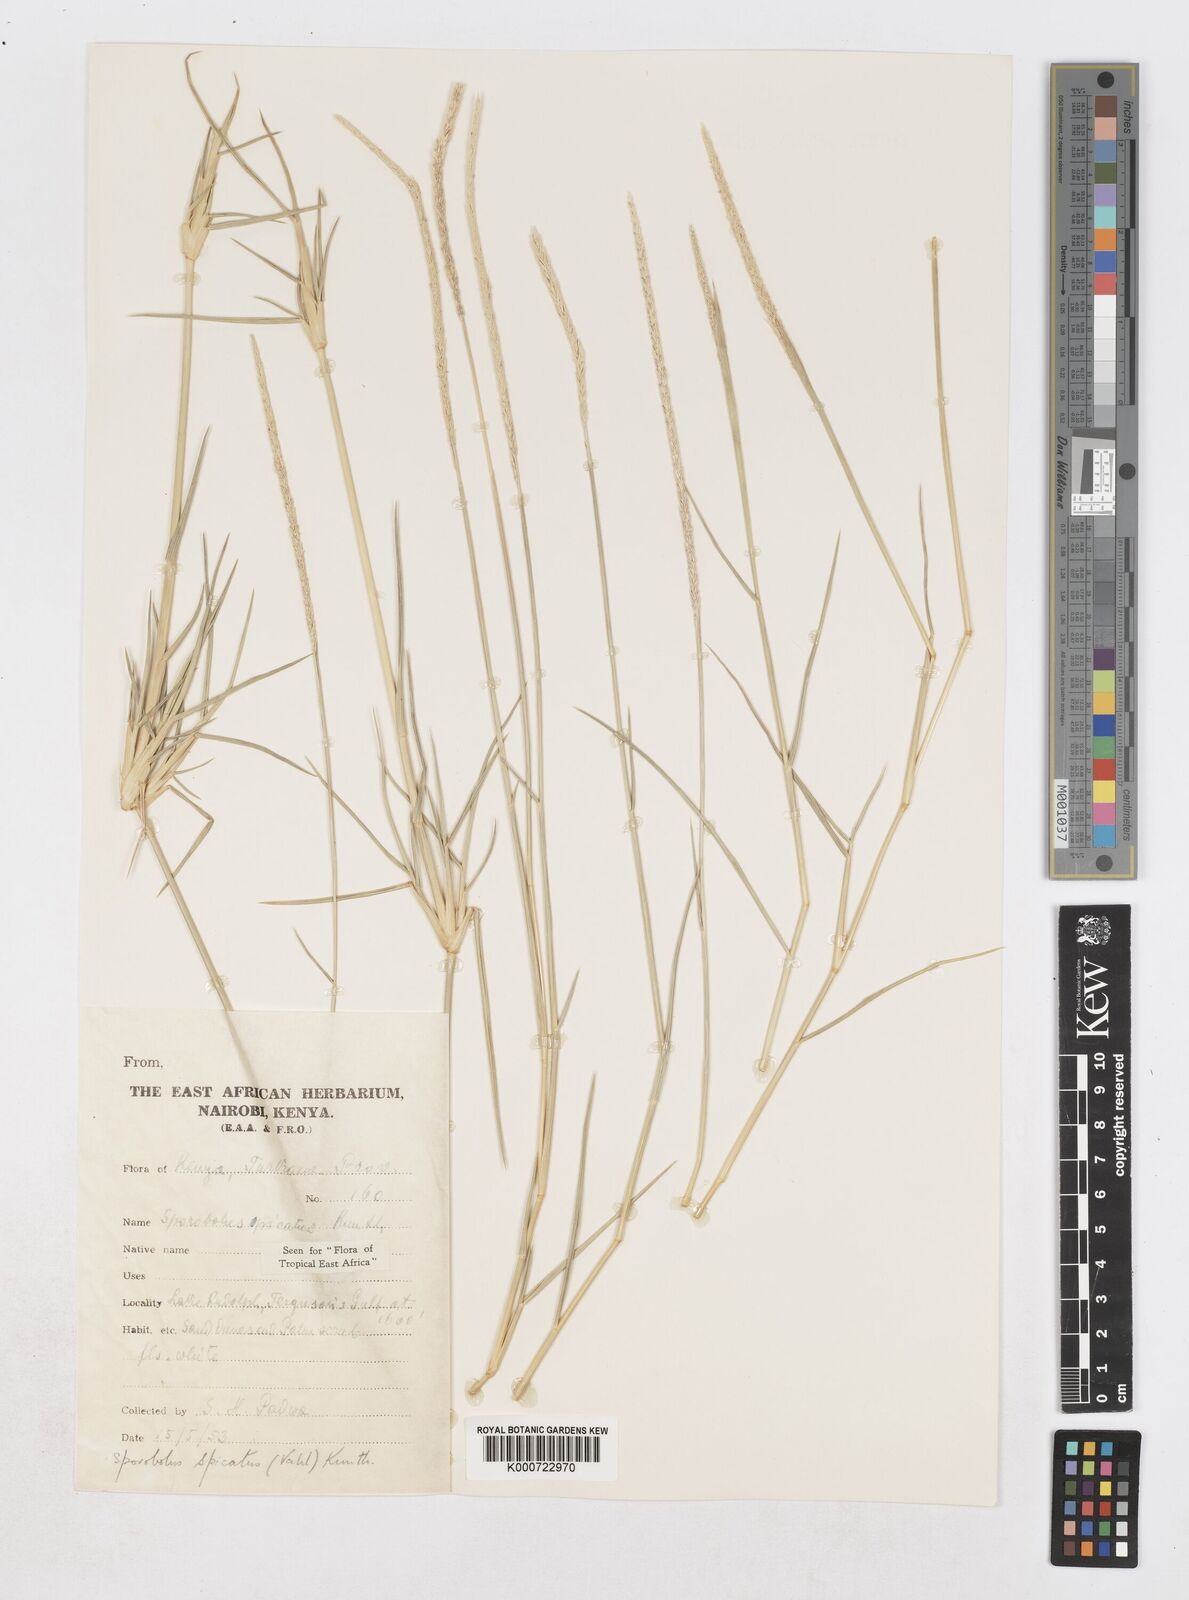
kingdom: Plantae
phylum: Tracheophyta
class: Liliopsida
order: Poales
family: Poaceae
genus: Sporobolus
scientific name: Sporobolus spicatus
